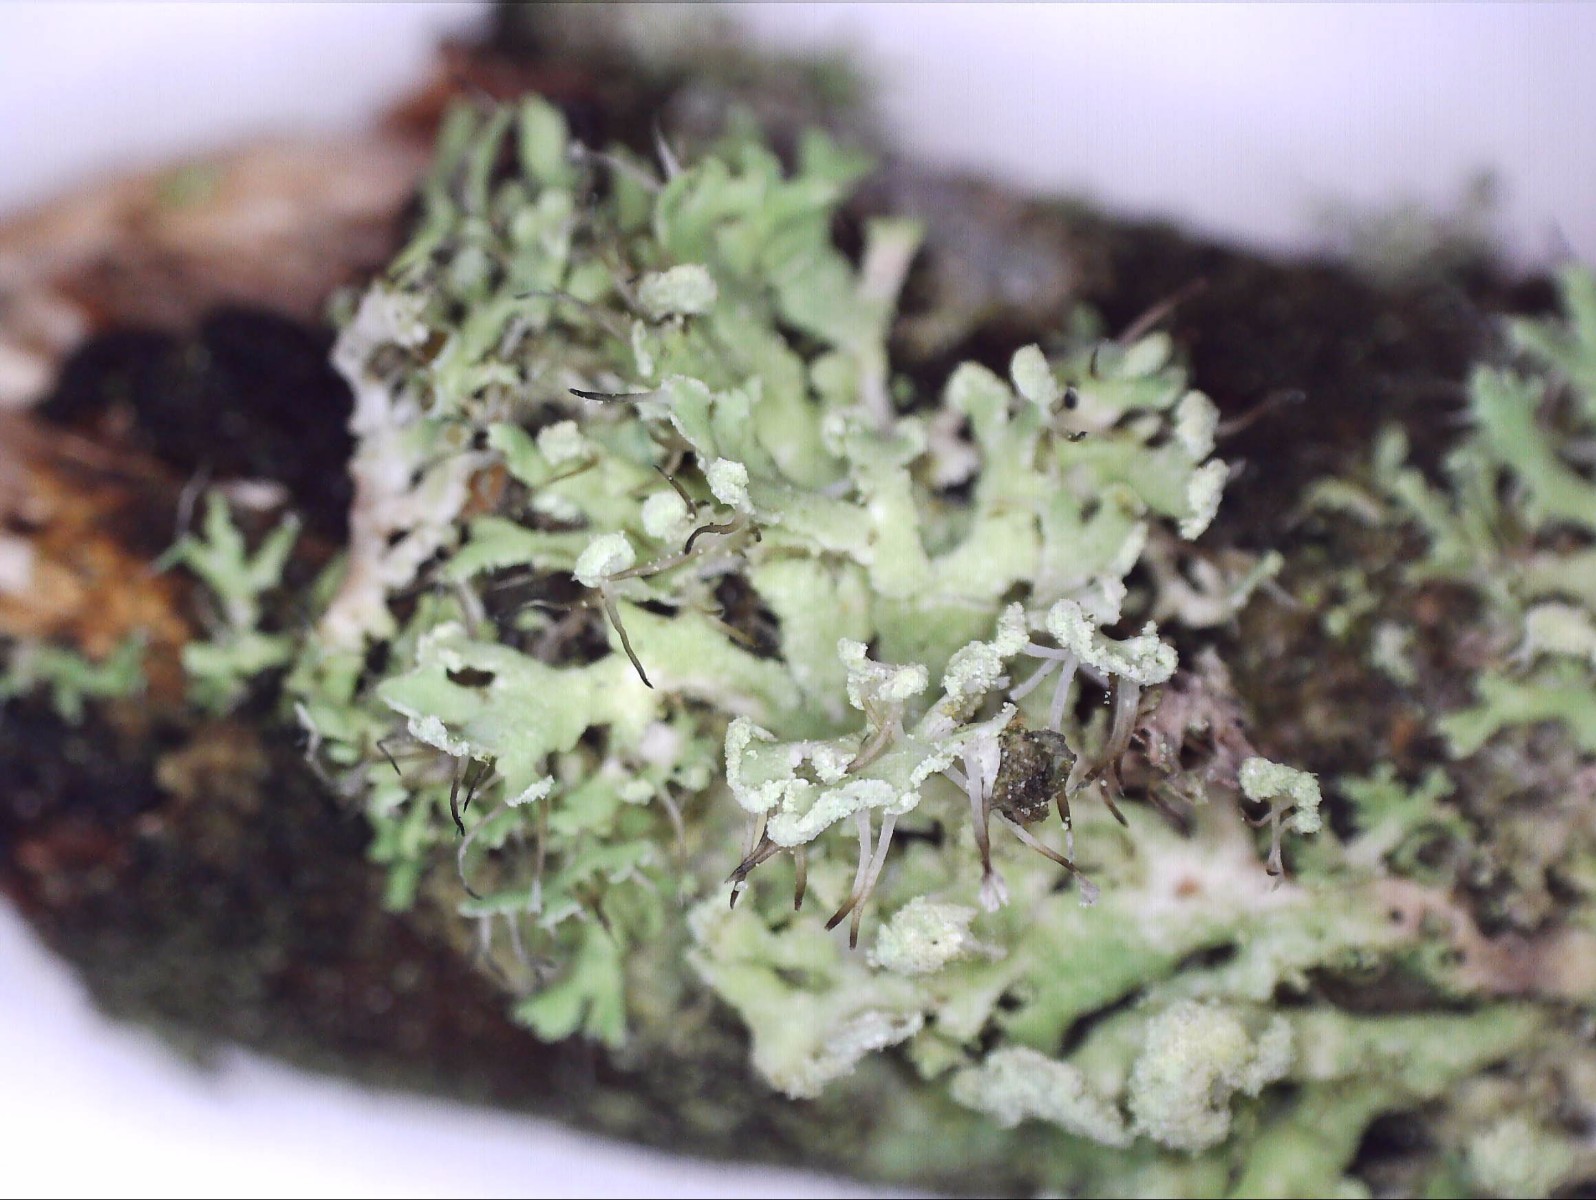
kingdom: Fungi
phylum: Ascomycota
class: Lecanoromycetes
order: Caliciales
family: Physciaceae
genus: Physcia
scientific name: Physcia tenella
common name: spæd rosetlav
